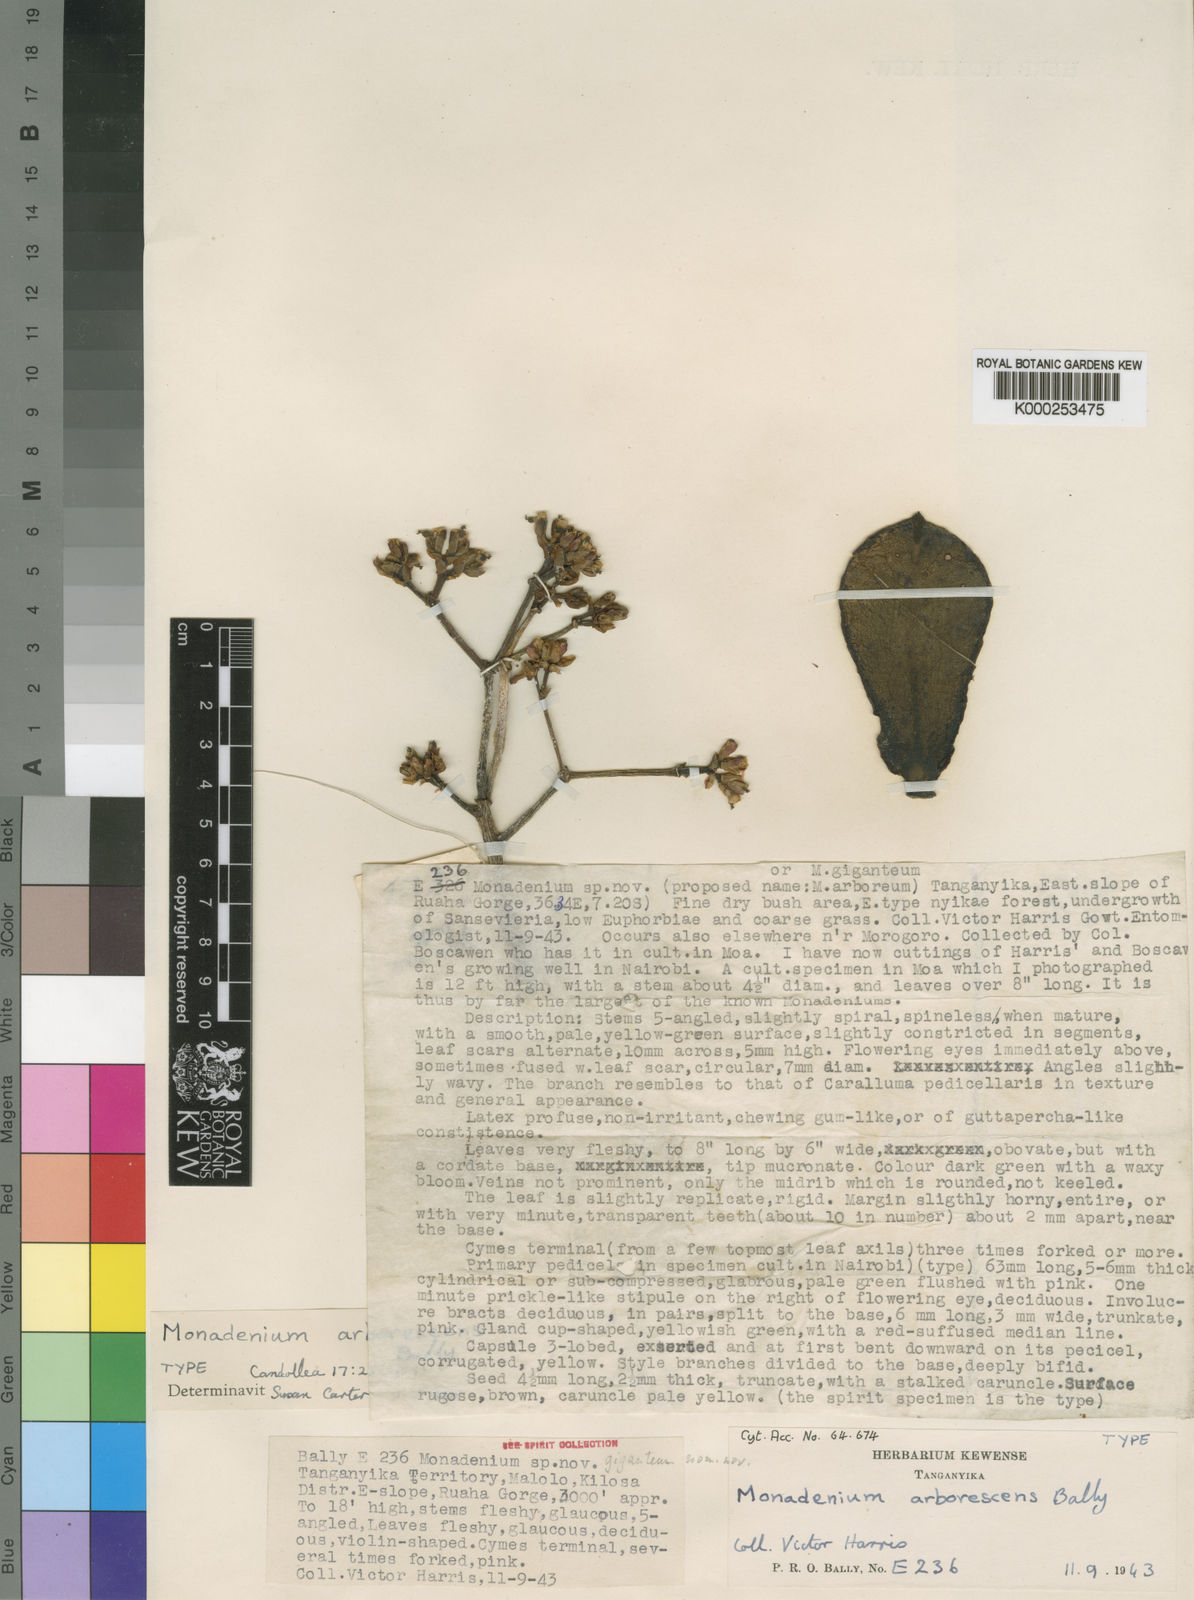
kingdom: Plantae
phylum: Tracheophyta
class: Magnoliopsida
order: Malpighiales
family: Euphorbiaceae
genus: Euphorbia
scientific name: Euphorbia neoarborescens
